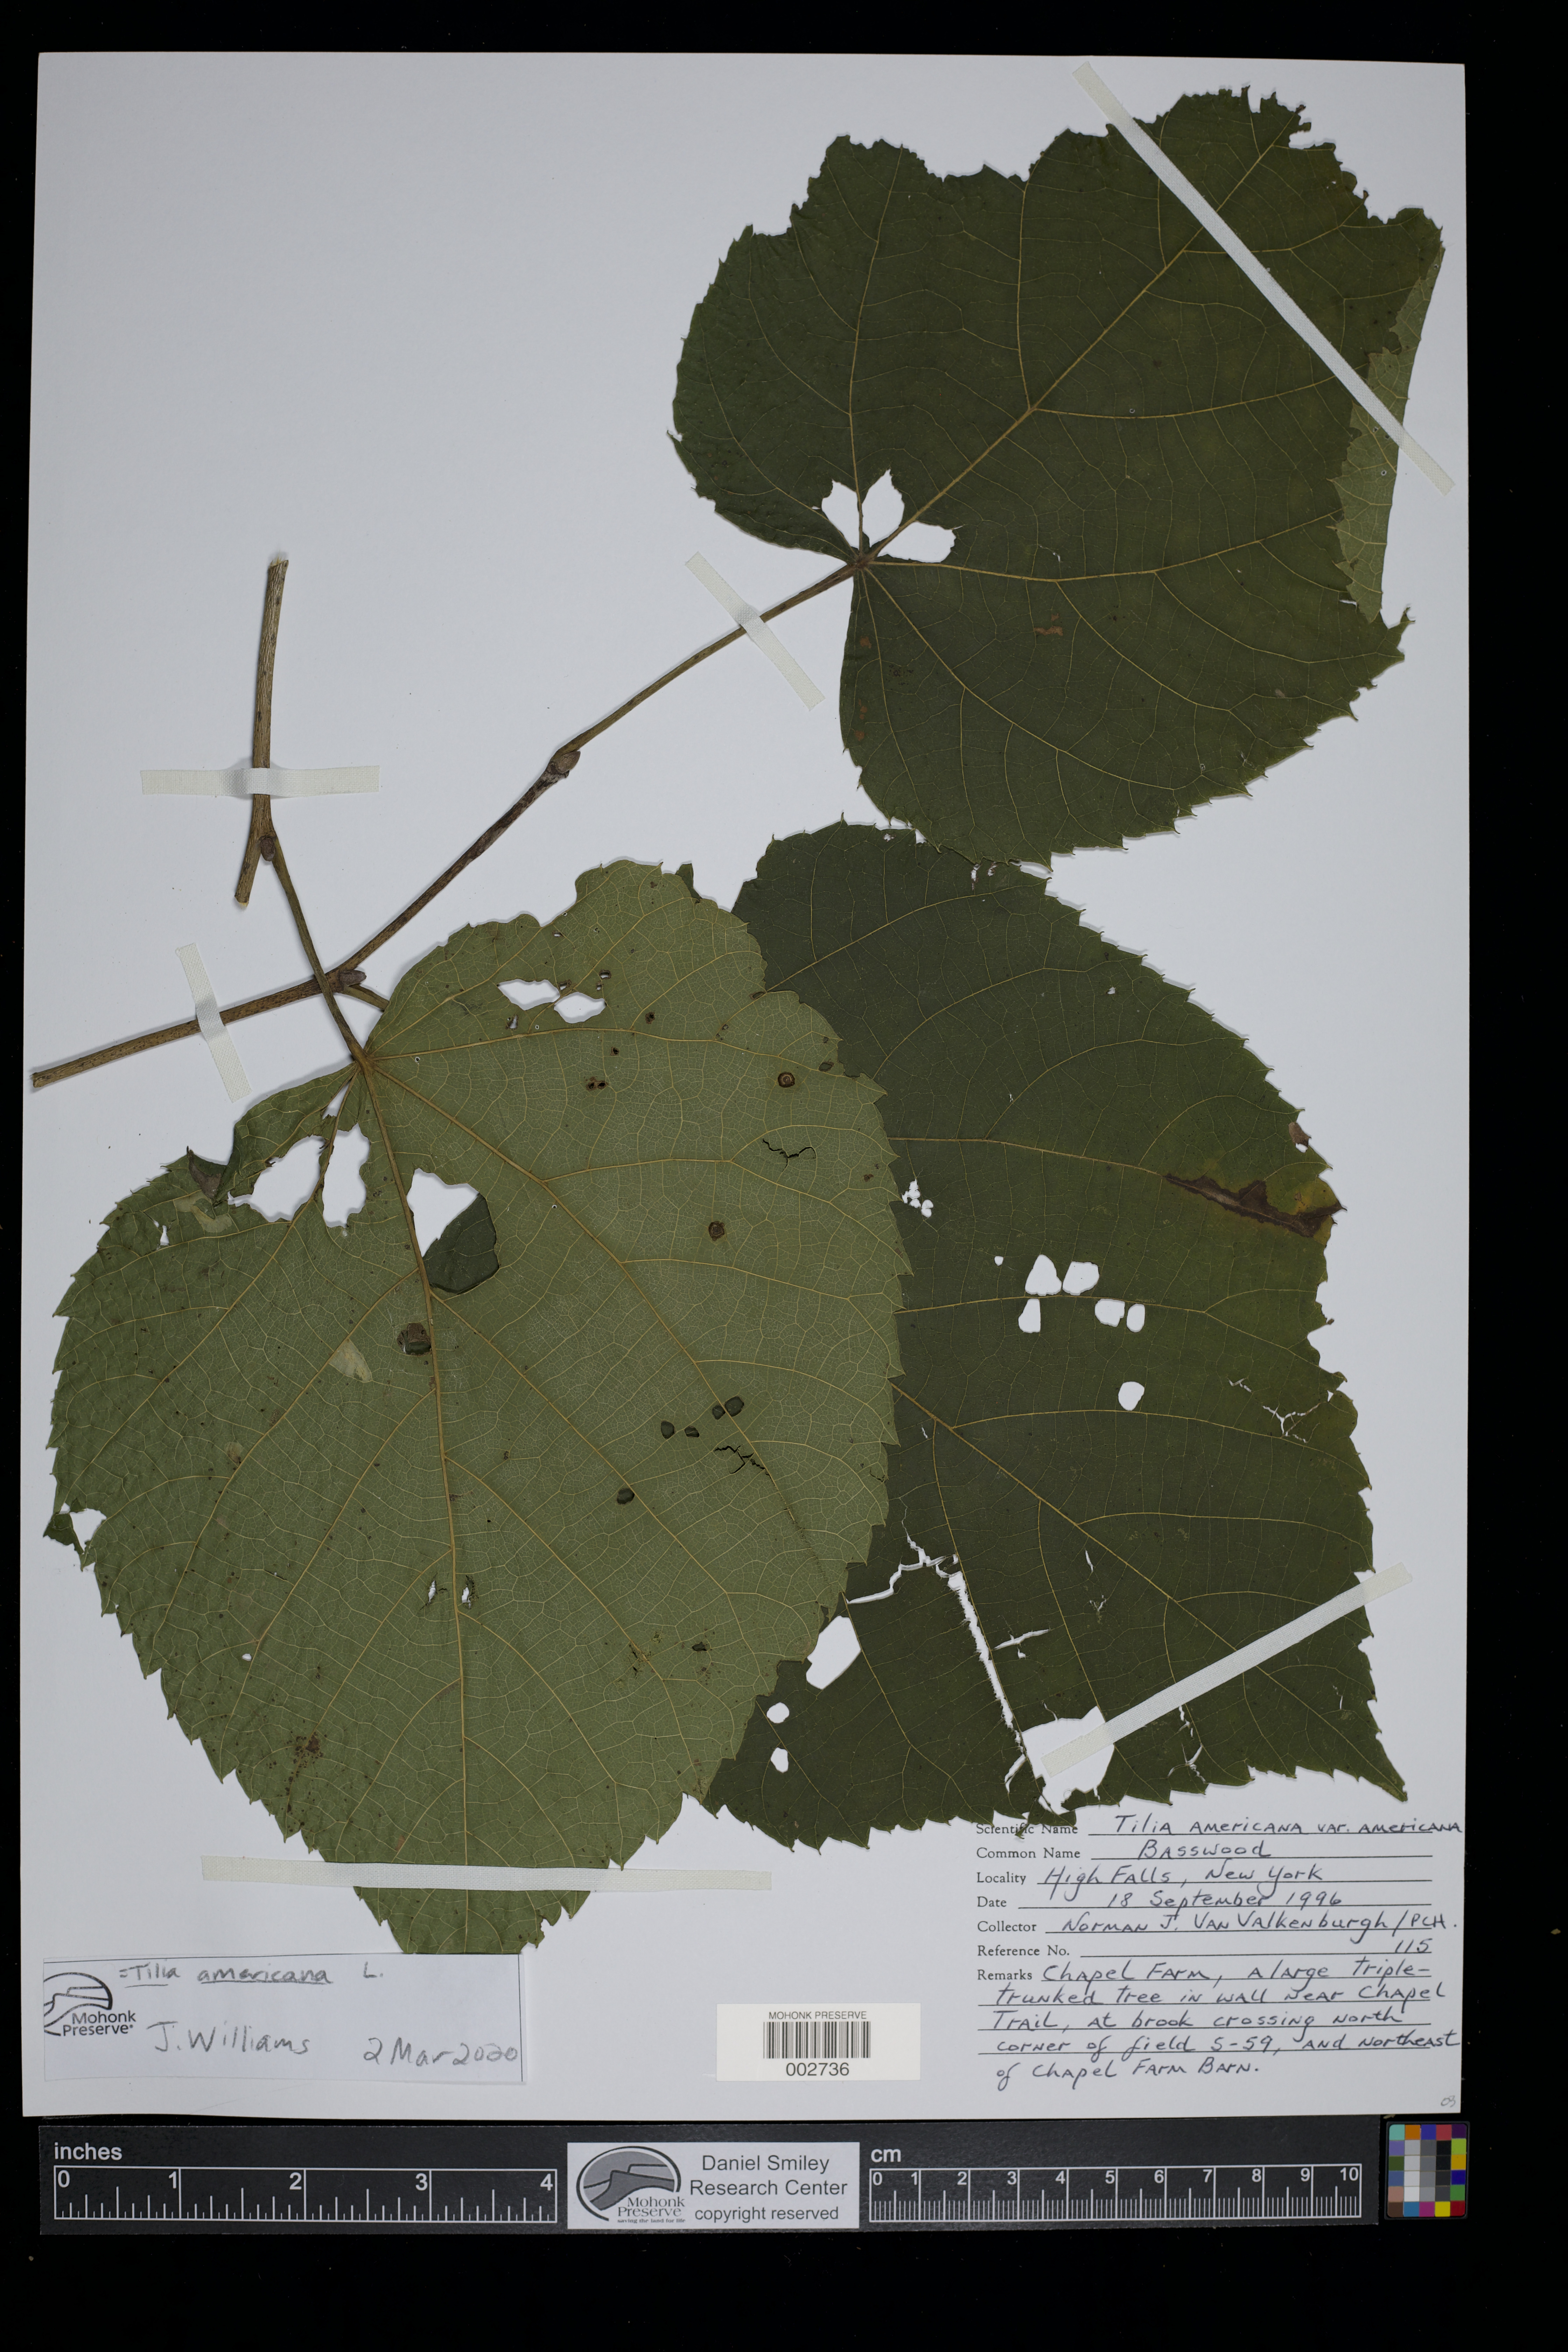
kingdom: Plantae
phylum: Tracheophyta
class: Magnoliopsida
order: Malvales
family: Malvaceae
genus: Tilia
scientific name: Tilia americana
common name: Basswood
